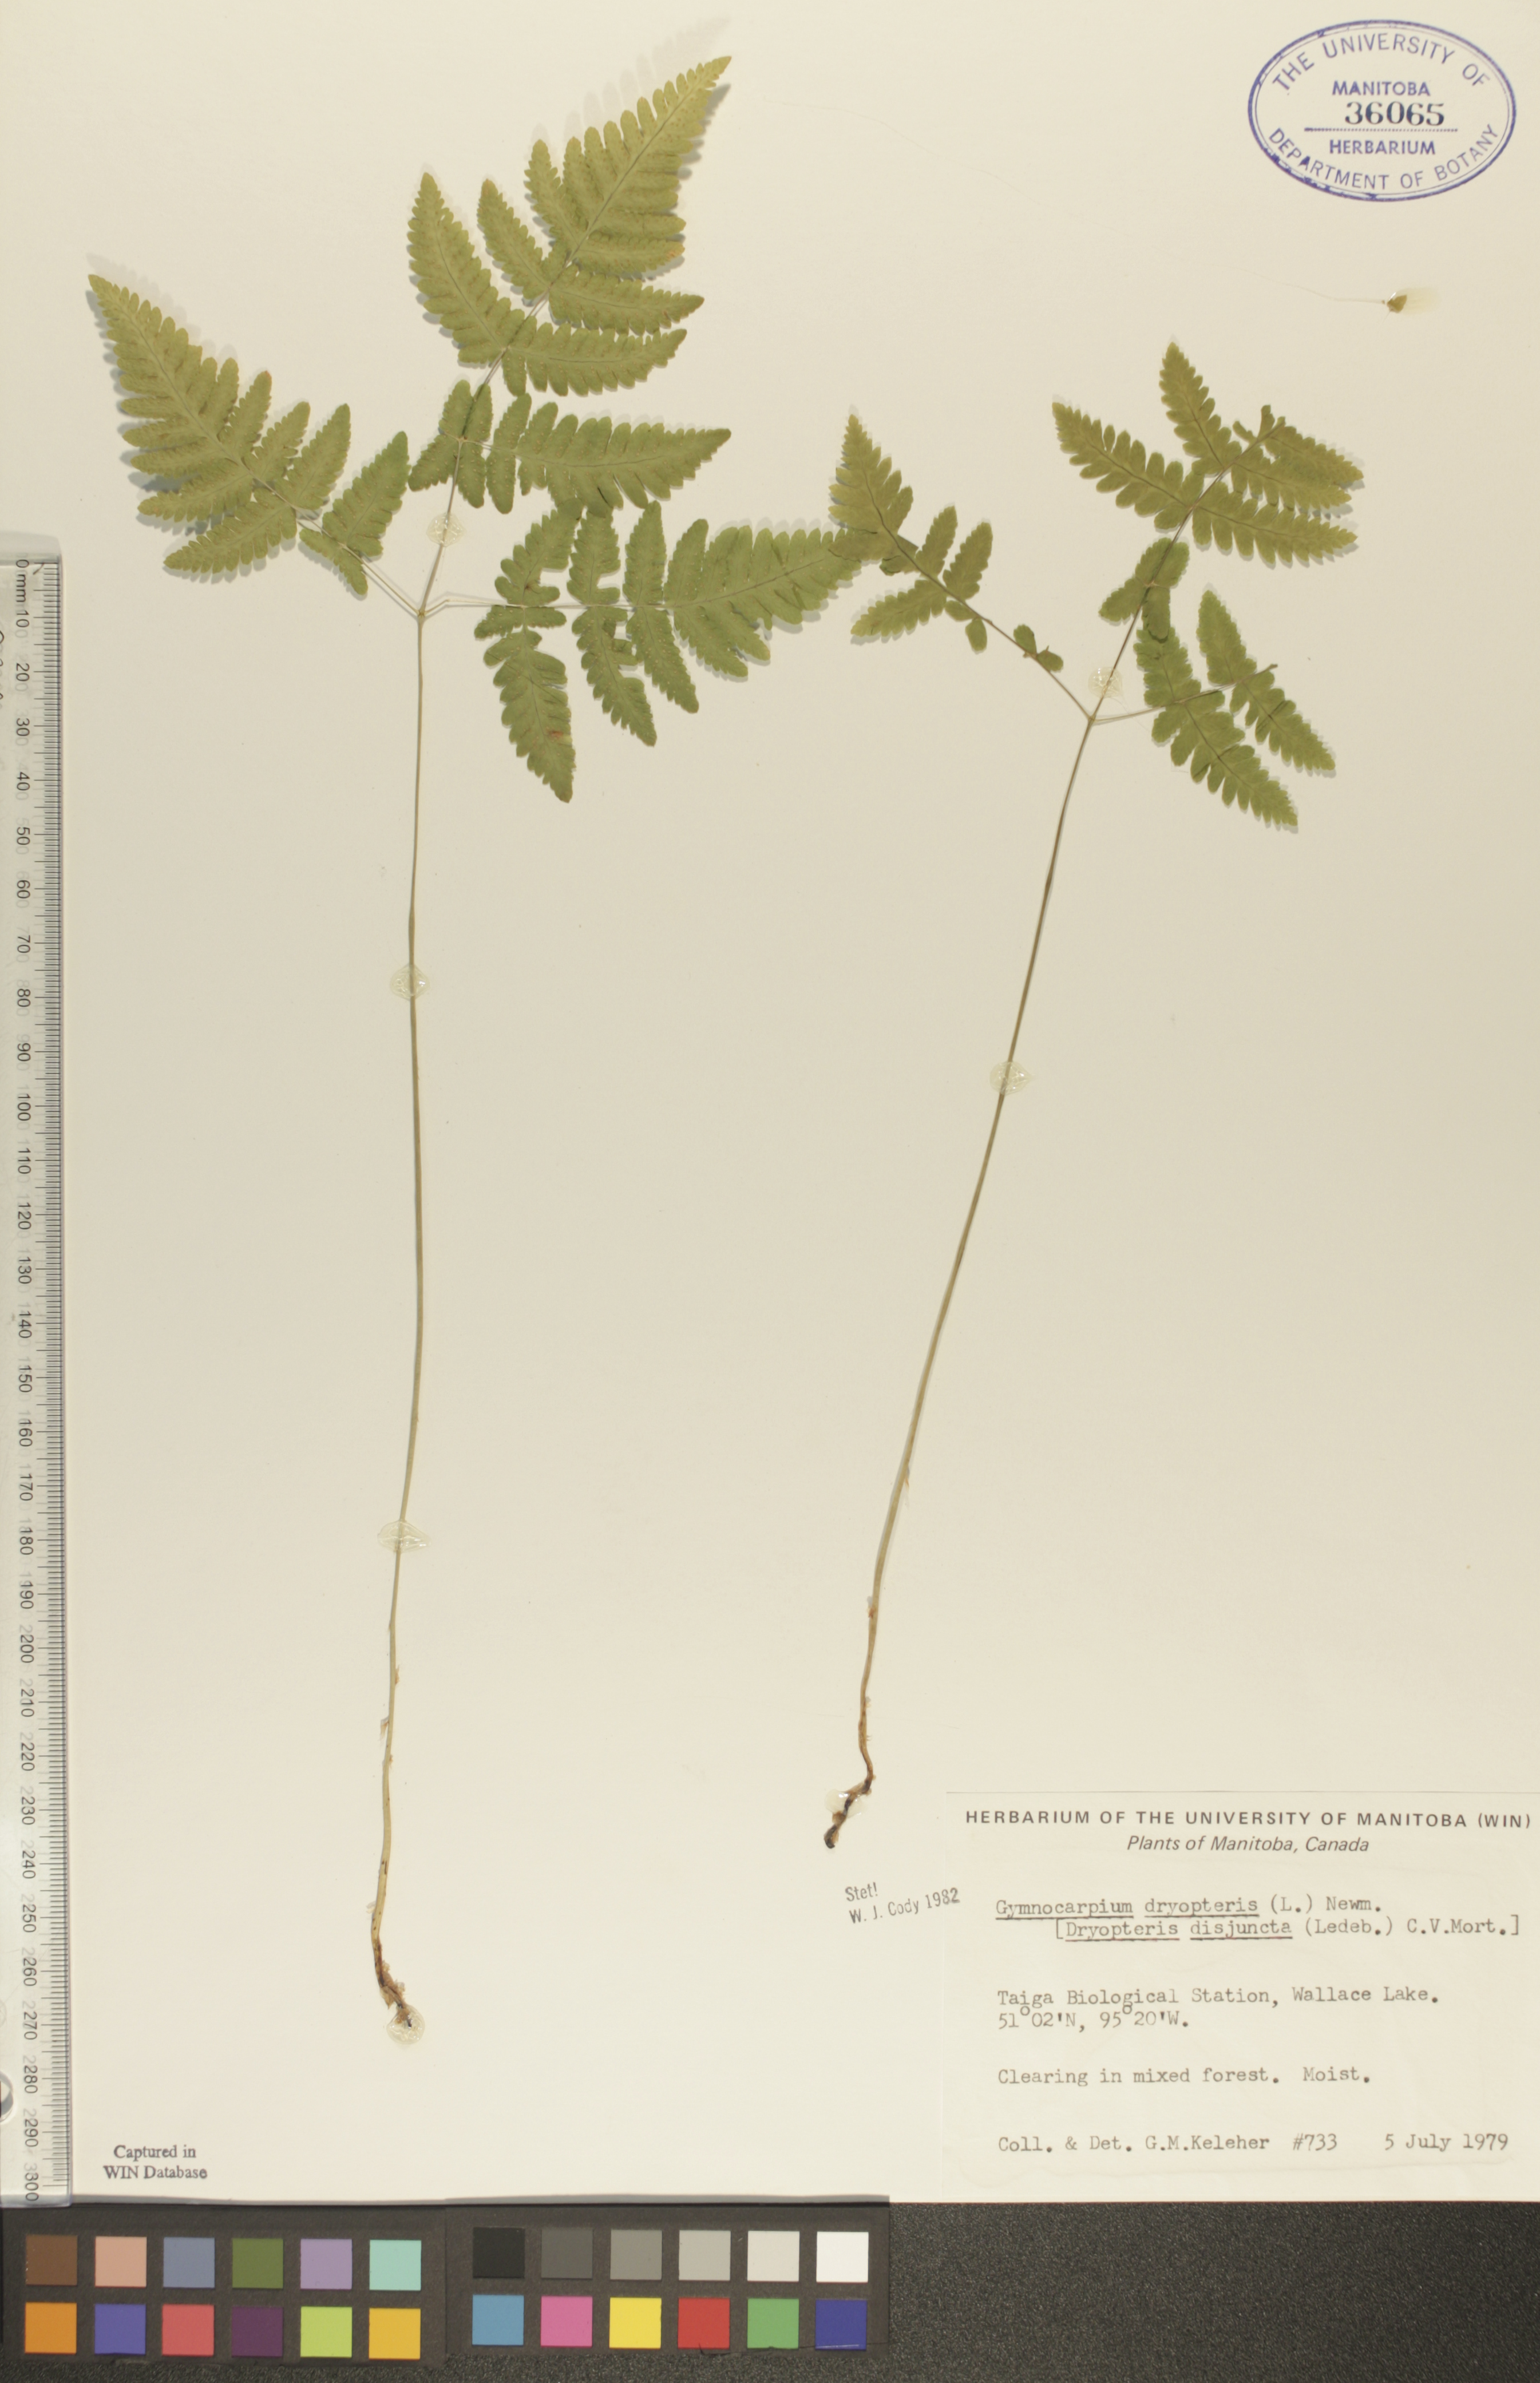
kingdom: Plantae
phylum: Tracheophyta
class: Polypodiopsida
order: Polypodiales
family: Cystopteridaceae
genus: Gymnocarpium
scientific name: Gymnocarpium dryopteris
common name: Oak fern
